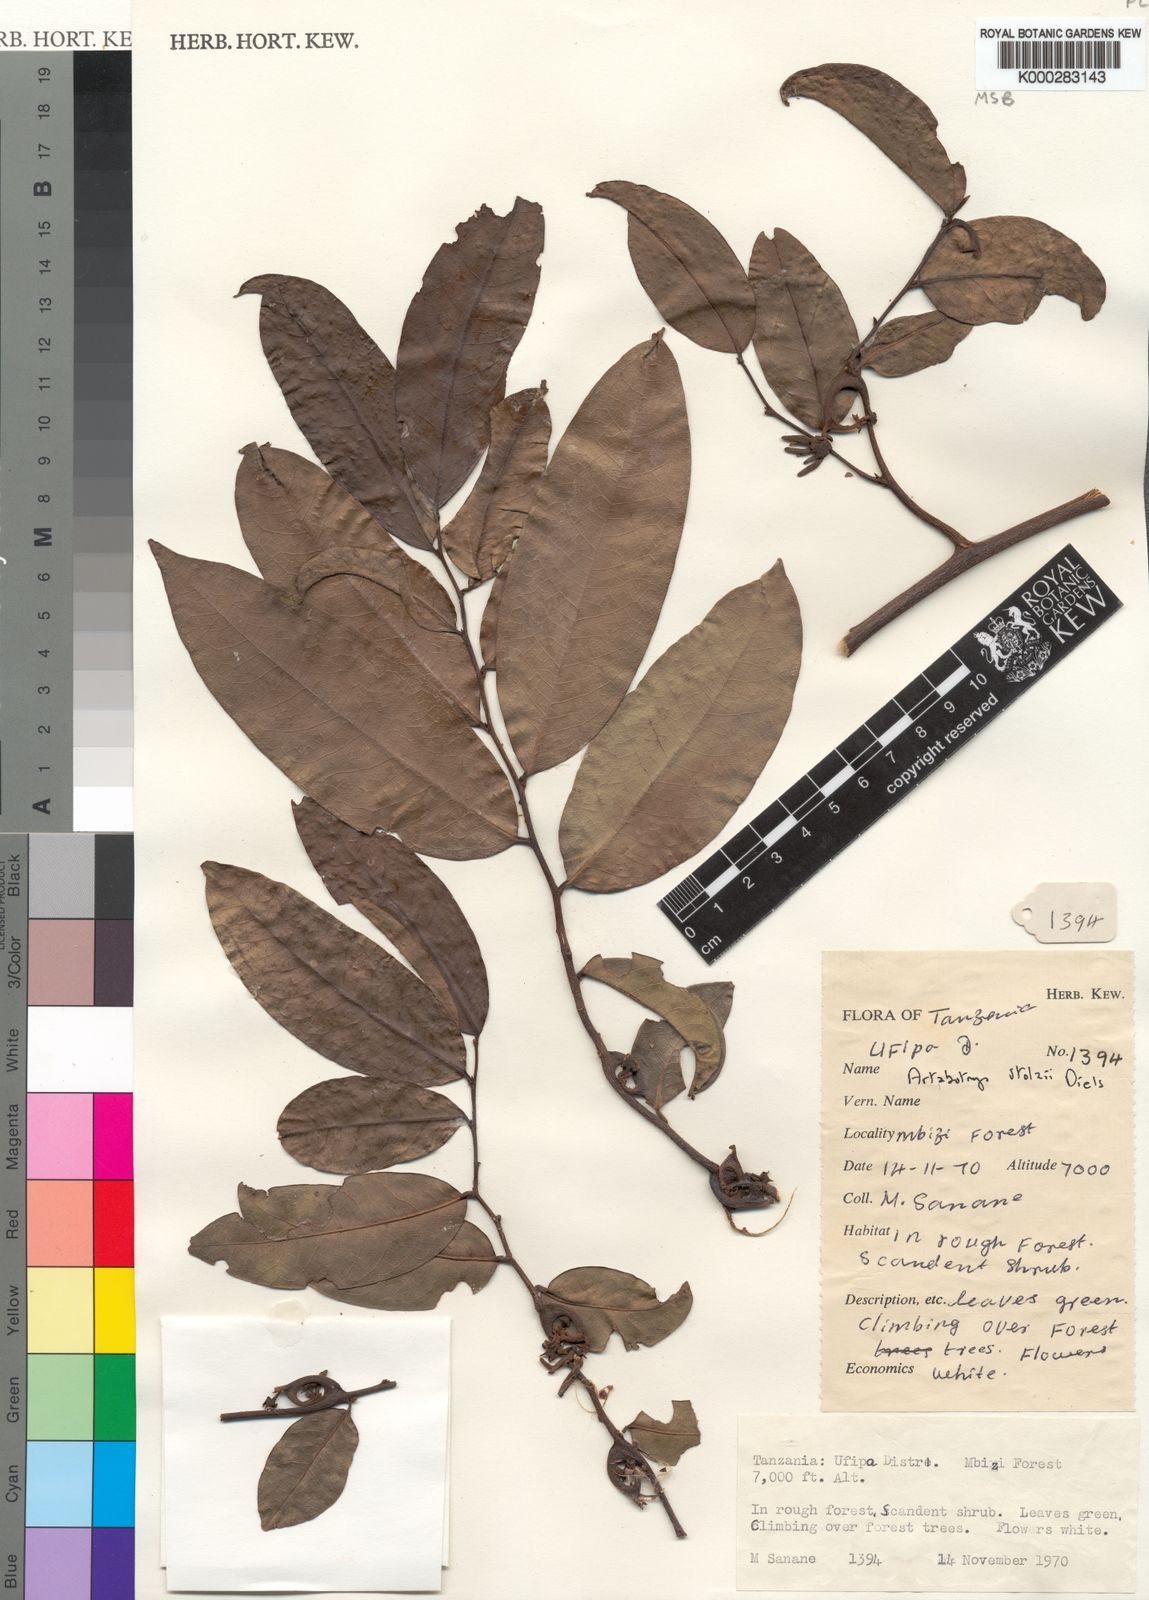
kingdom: Plantae
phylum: Tracheophyta
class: Magnoliopsida
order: Magnoliales
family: Annonaceae
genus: Artabotrys
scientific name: Artabotrys stolzii
